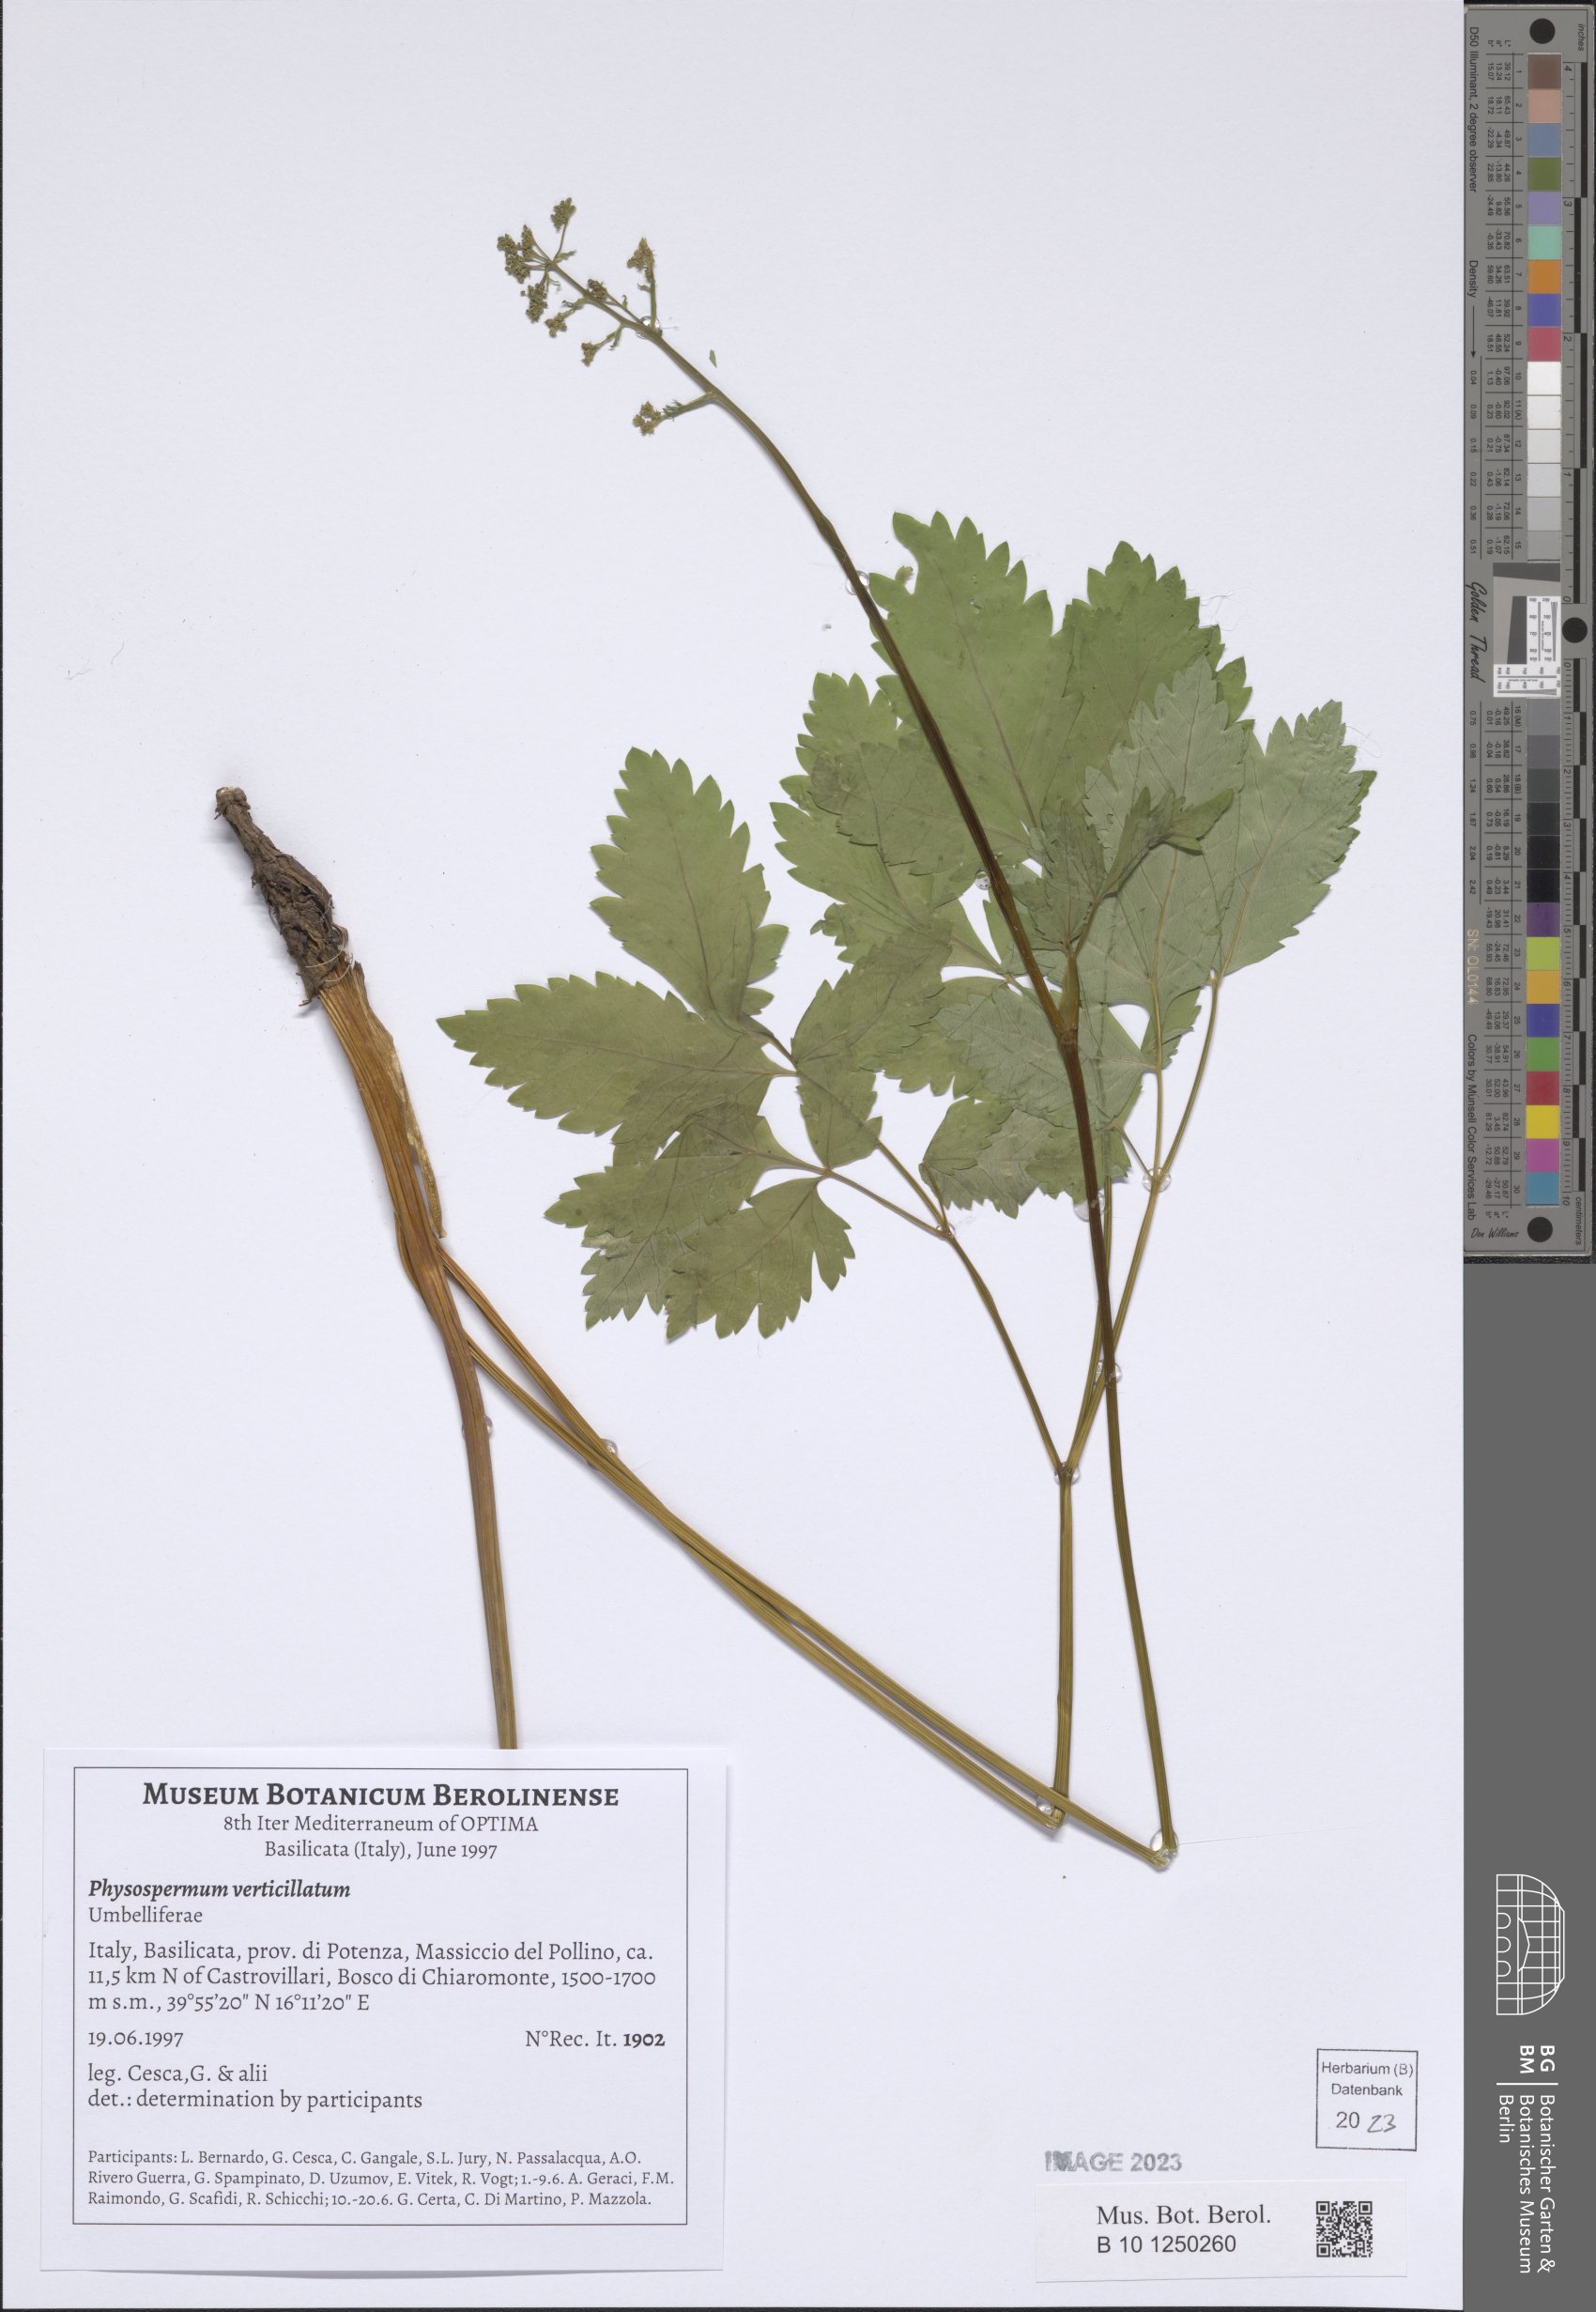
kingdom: Plantae
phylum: Tracheophyta
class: Magnoliopsida
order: Apiales
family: Apiaceae
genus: Physospermum
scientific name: Physospermum verticillatum
